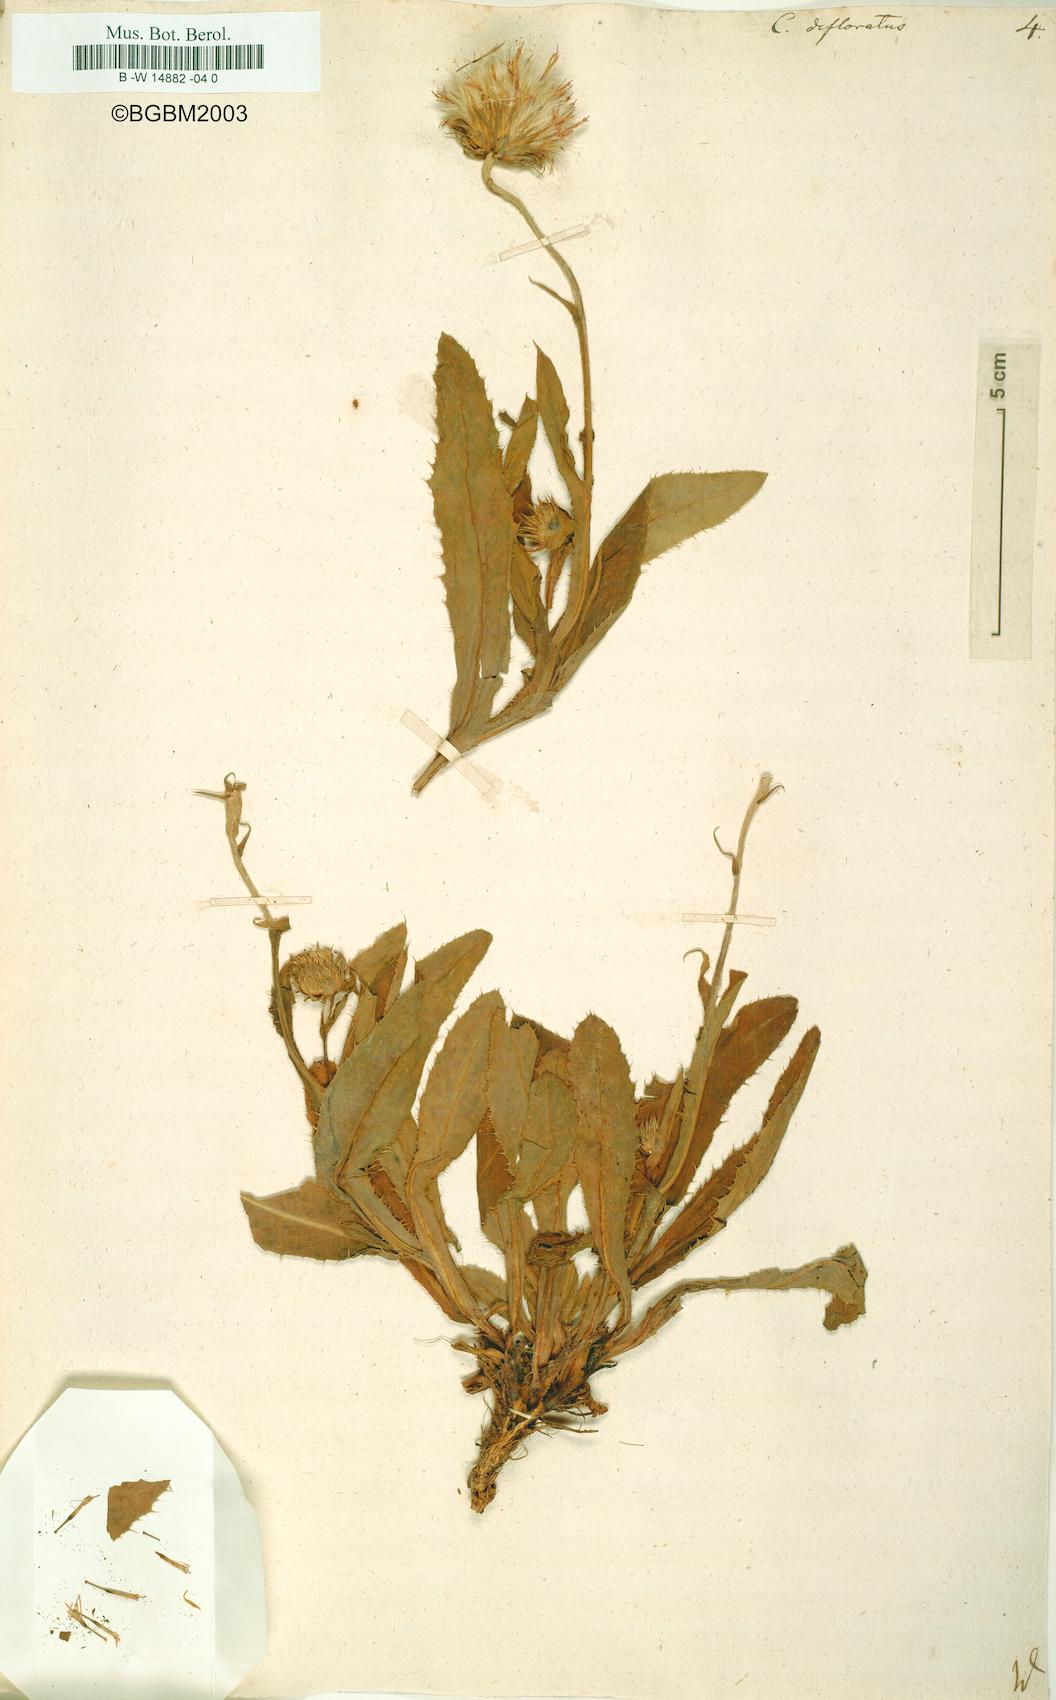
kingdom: Plantae
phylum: Tracheophyta
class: Magnoliopsida
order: Asterales
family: Asteraceae
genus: Carduus
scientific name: Carduus defloratus
